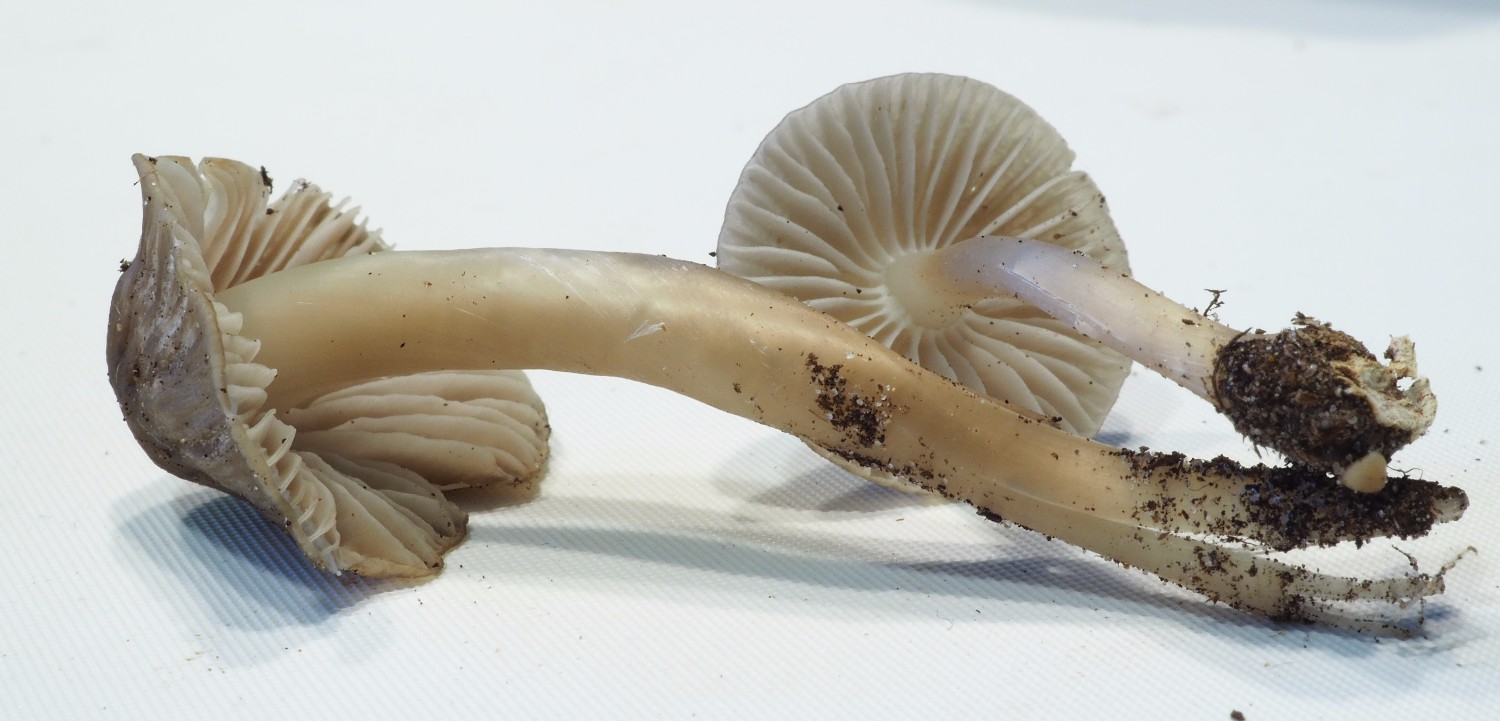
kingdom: Fungi
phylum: Basidiomycota
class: Agaricomycetes
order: Agaricales
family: Mycenaceae
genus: Mycena
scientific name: Mycena galericulata
